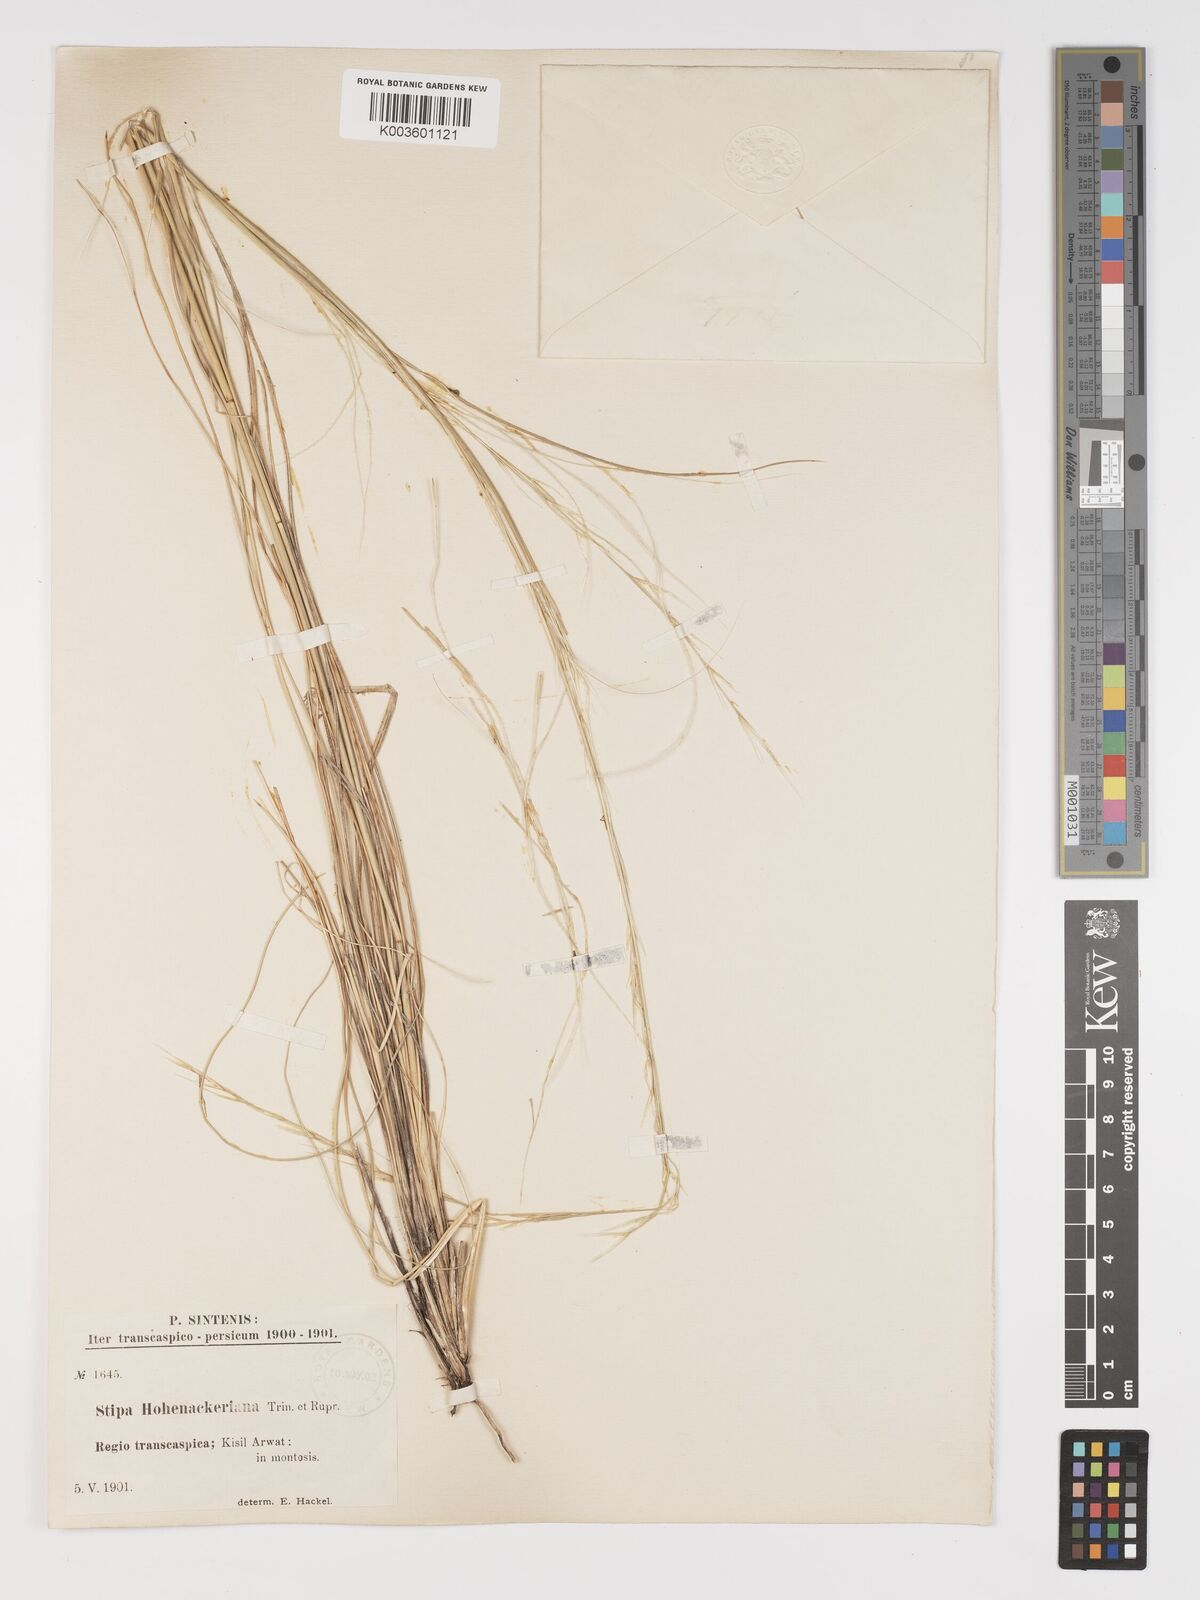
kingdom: Plantae
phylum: Tracheophyta
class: Liliopsida
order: Poales
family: Poaceae
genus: Stipa
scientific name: Stipa arabica
